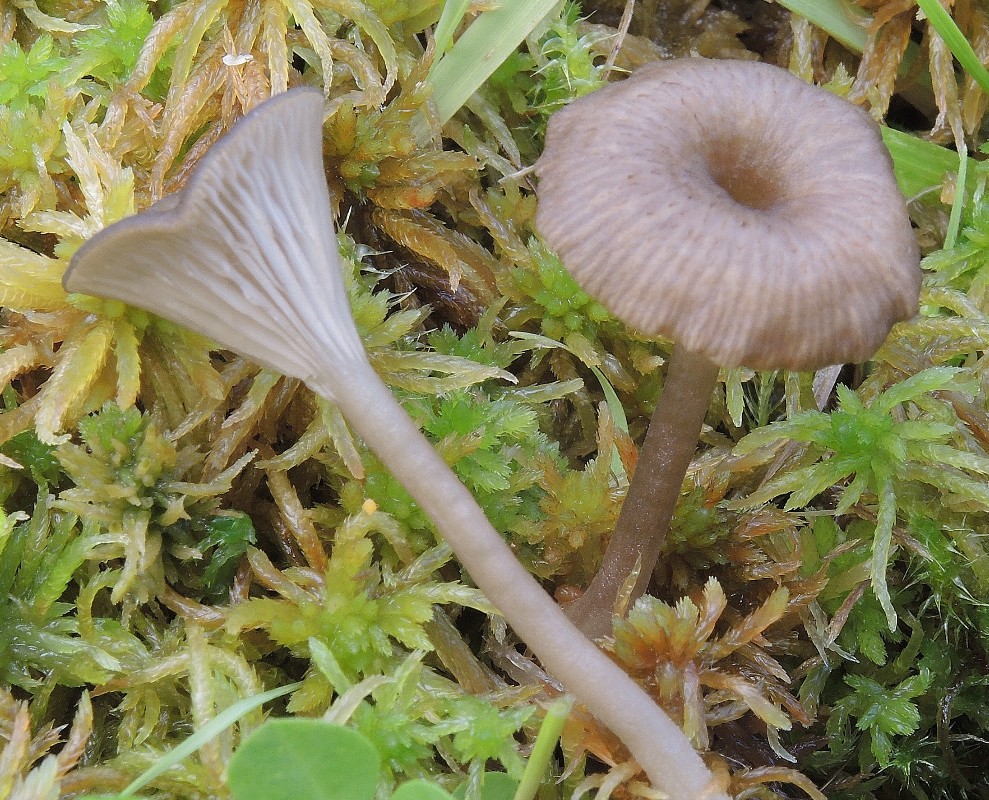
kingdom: Fungi
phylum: Basidiomycota
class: Agaricomycetes
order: Agaricales
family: Hygrophoraceae
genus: Arrhenia
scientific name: Arrhenia gerardiana
